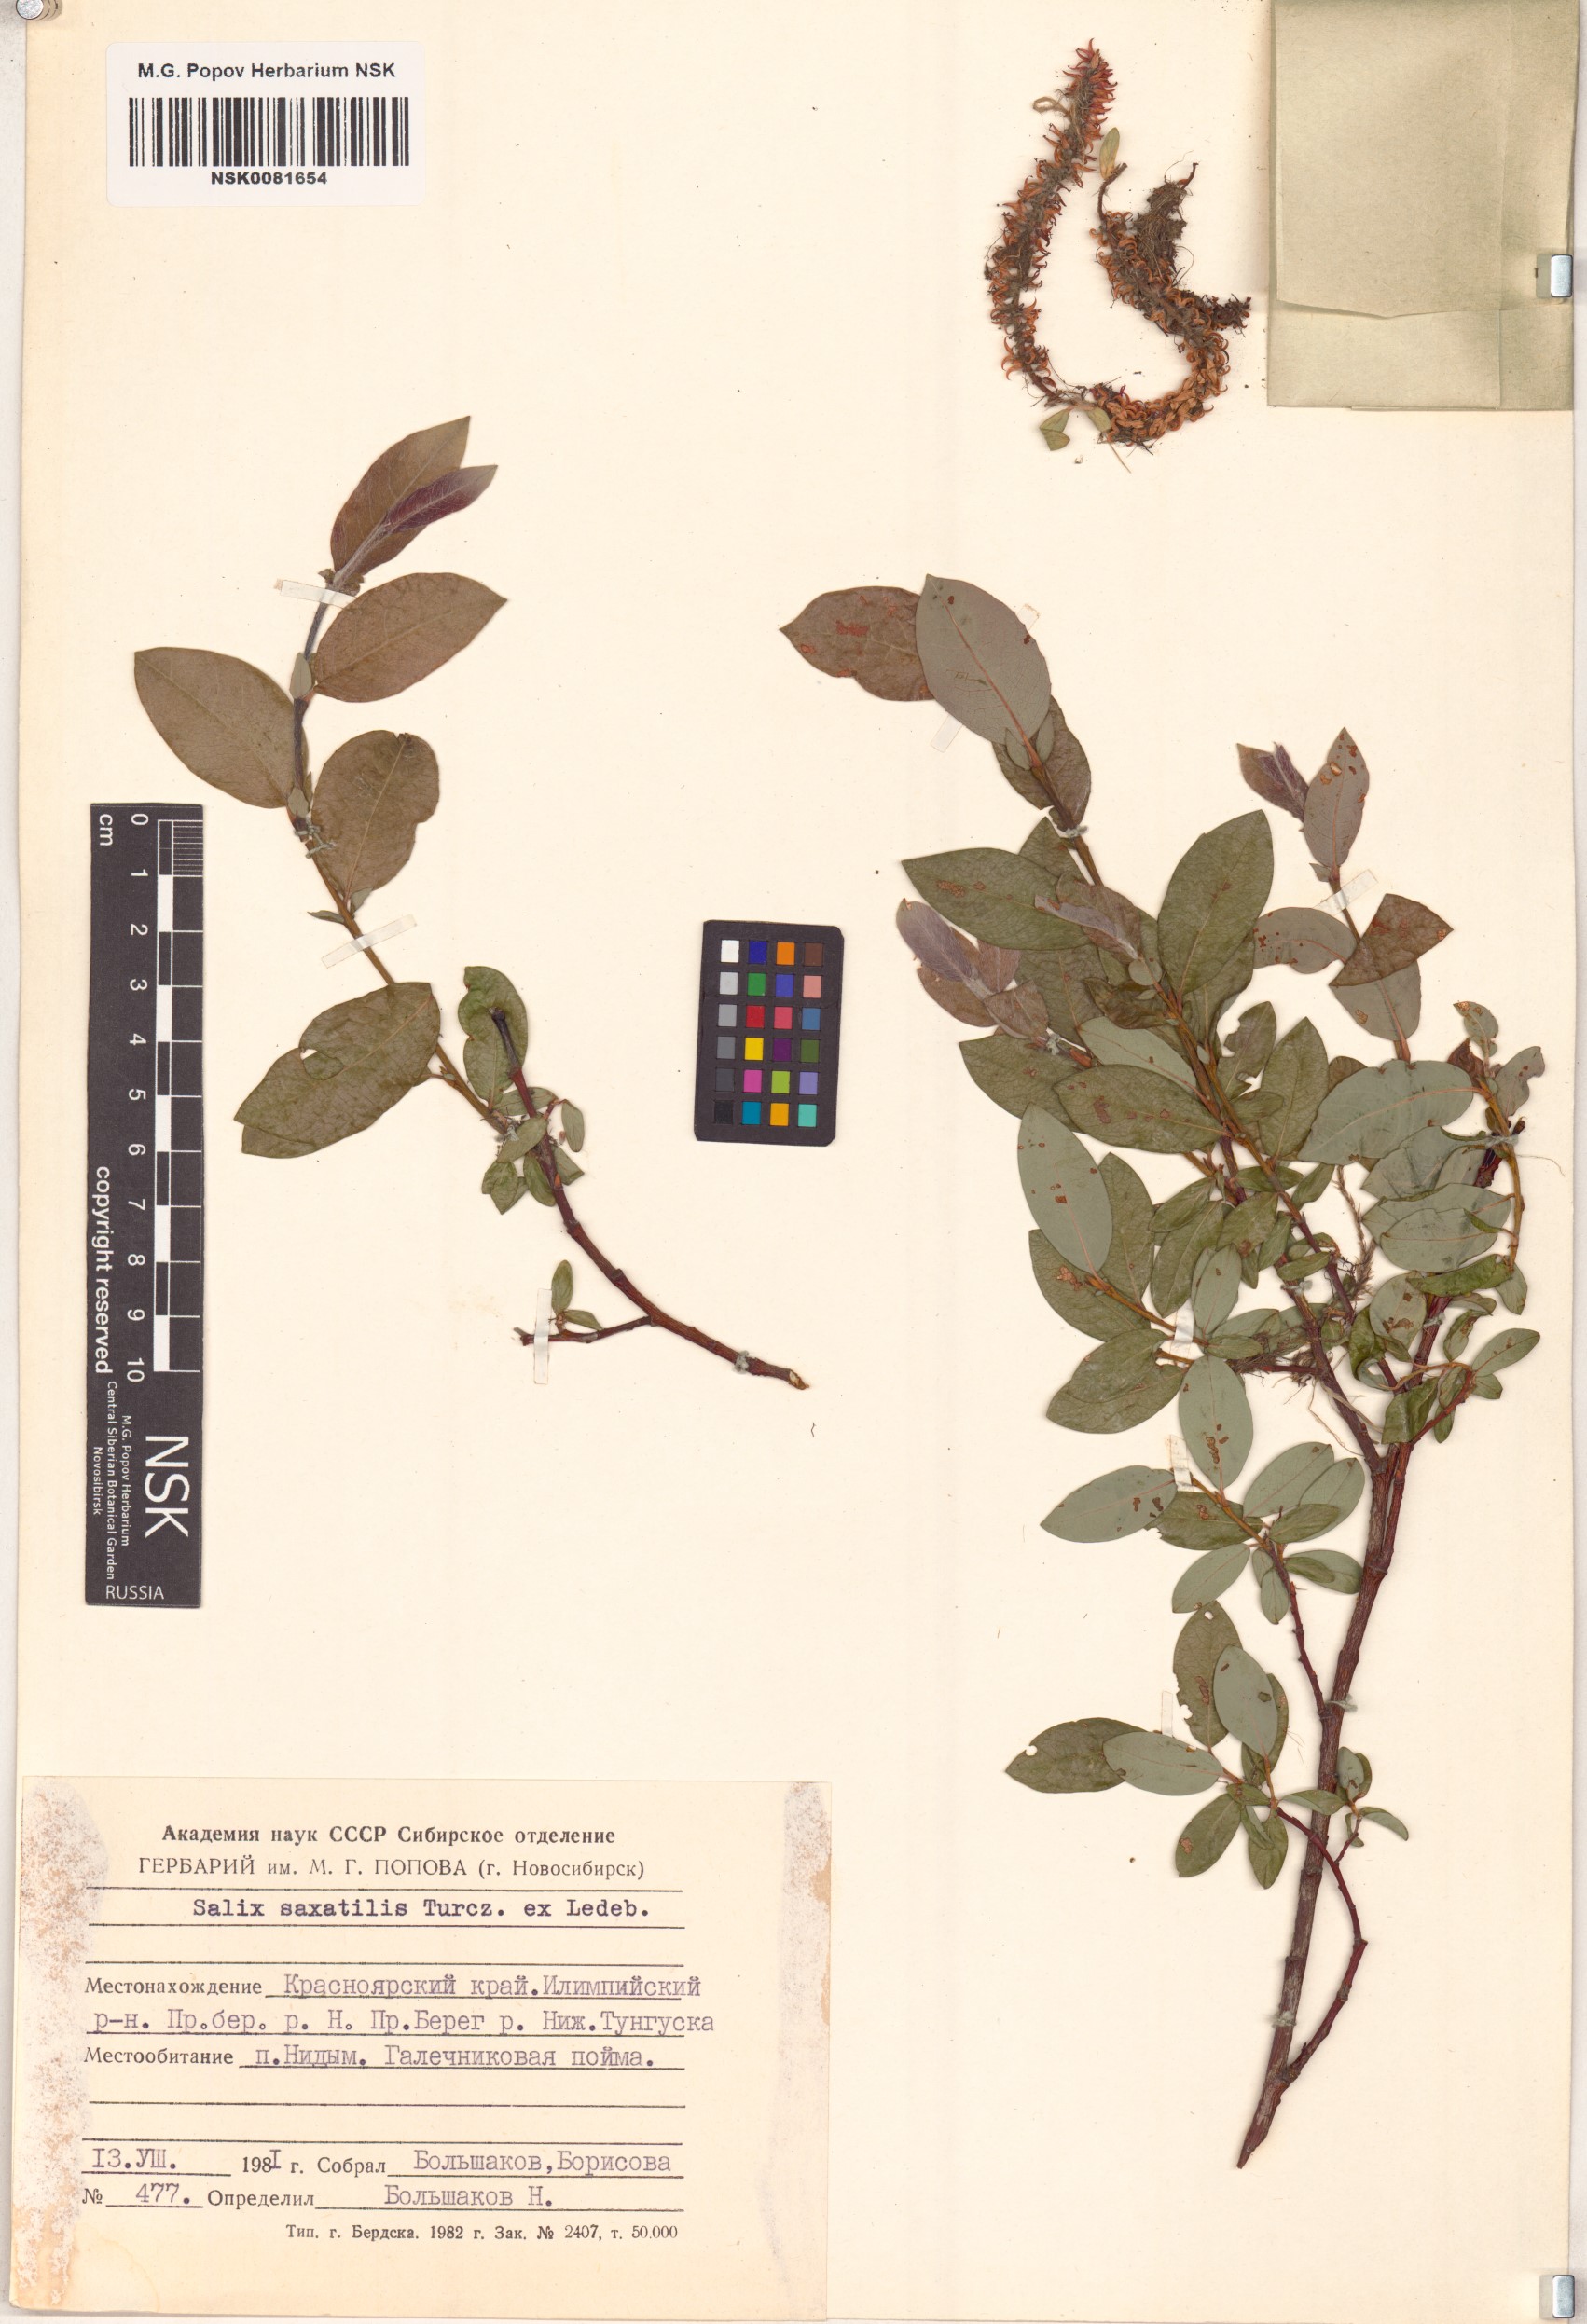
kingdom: Plantae
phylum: Tracheophyta
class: Magnoliopsida
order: Malpighiales
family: Salicaceae
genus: Salix
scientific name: Salix saxatilis
